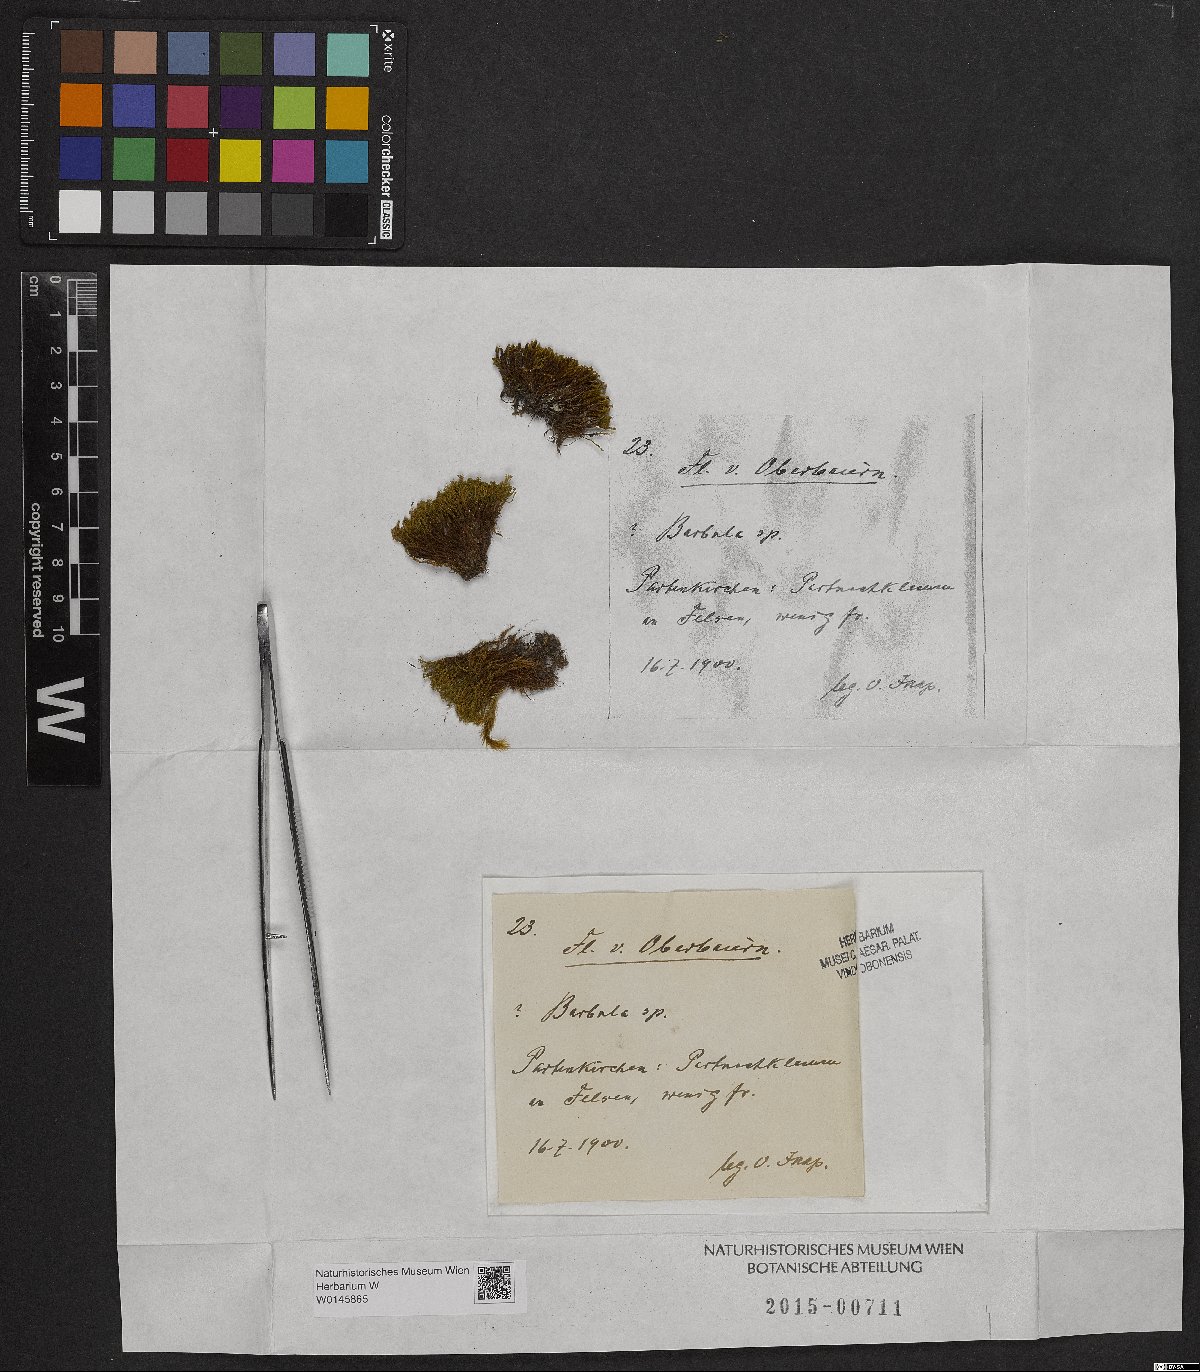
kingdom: Plantae
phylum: Bryophyta
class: Bryopsida
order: Pottiales
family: Pottiaceae
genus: Barbula
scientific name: Barbula
